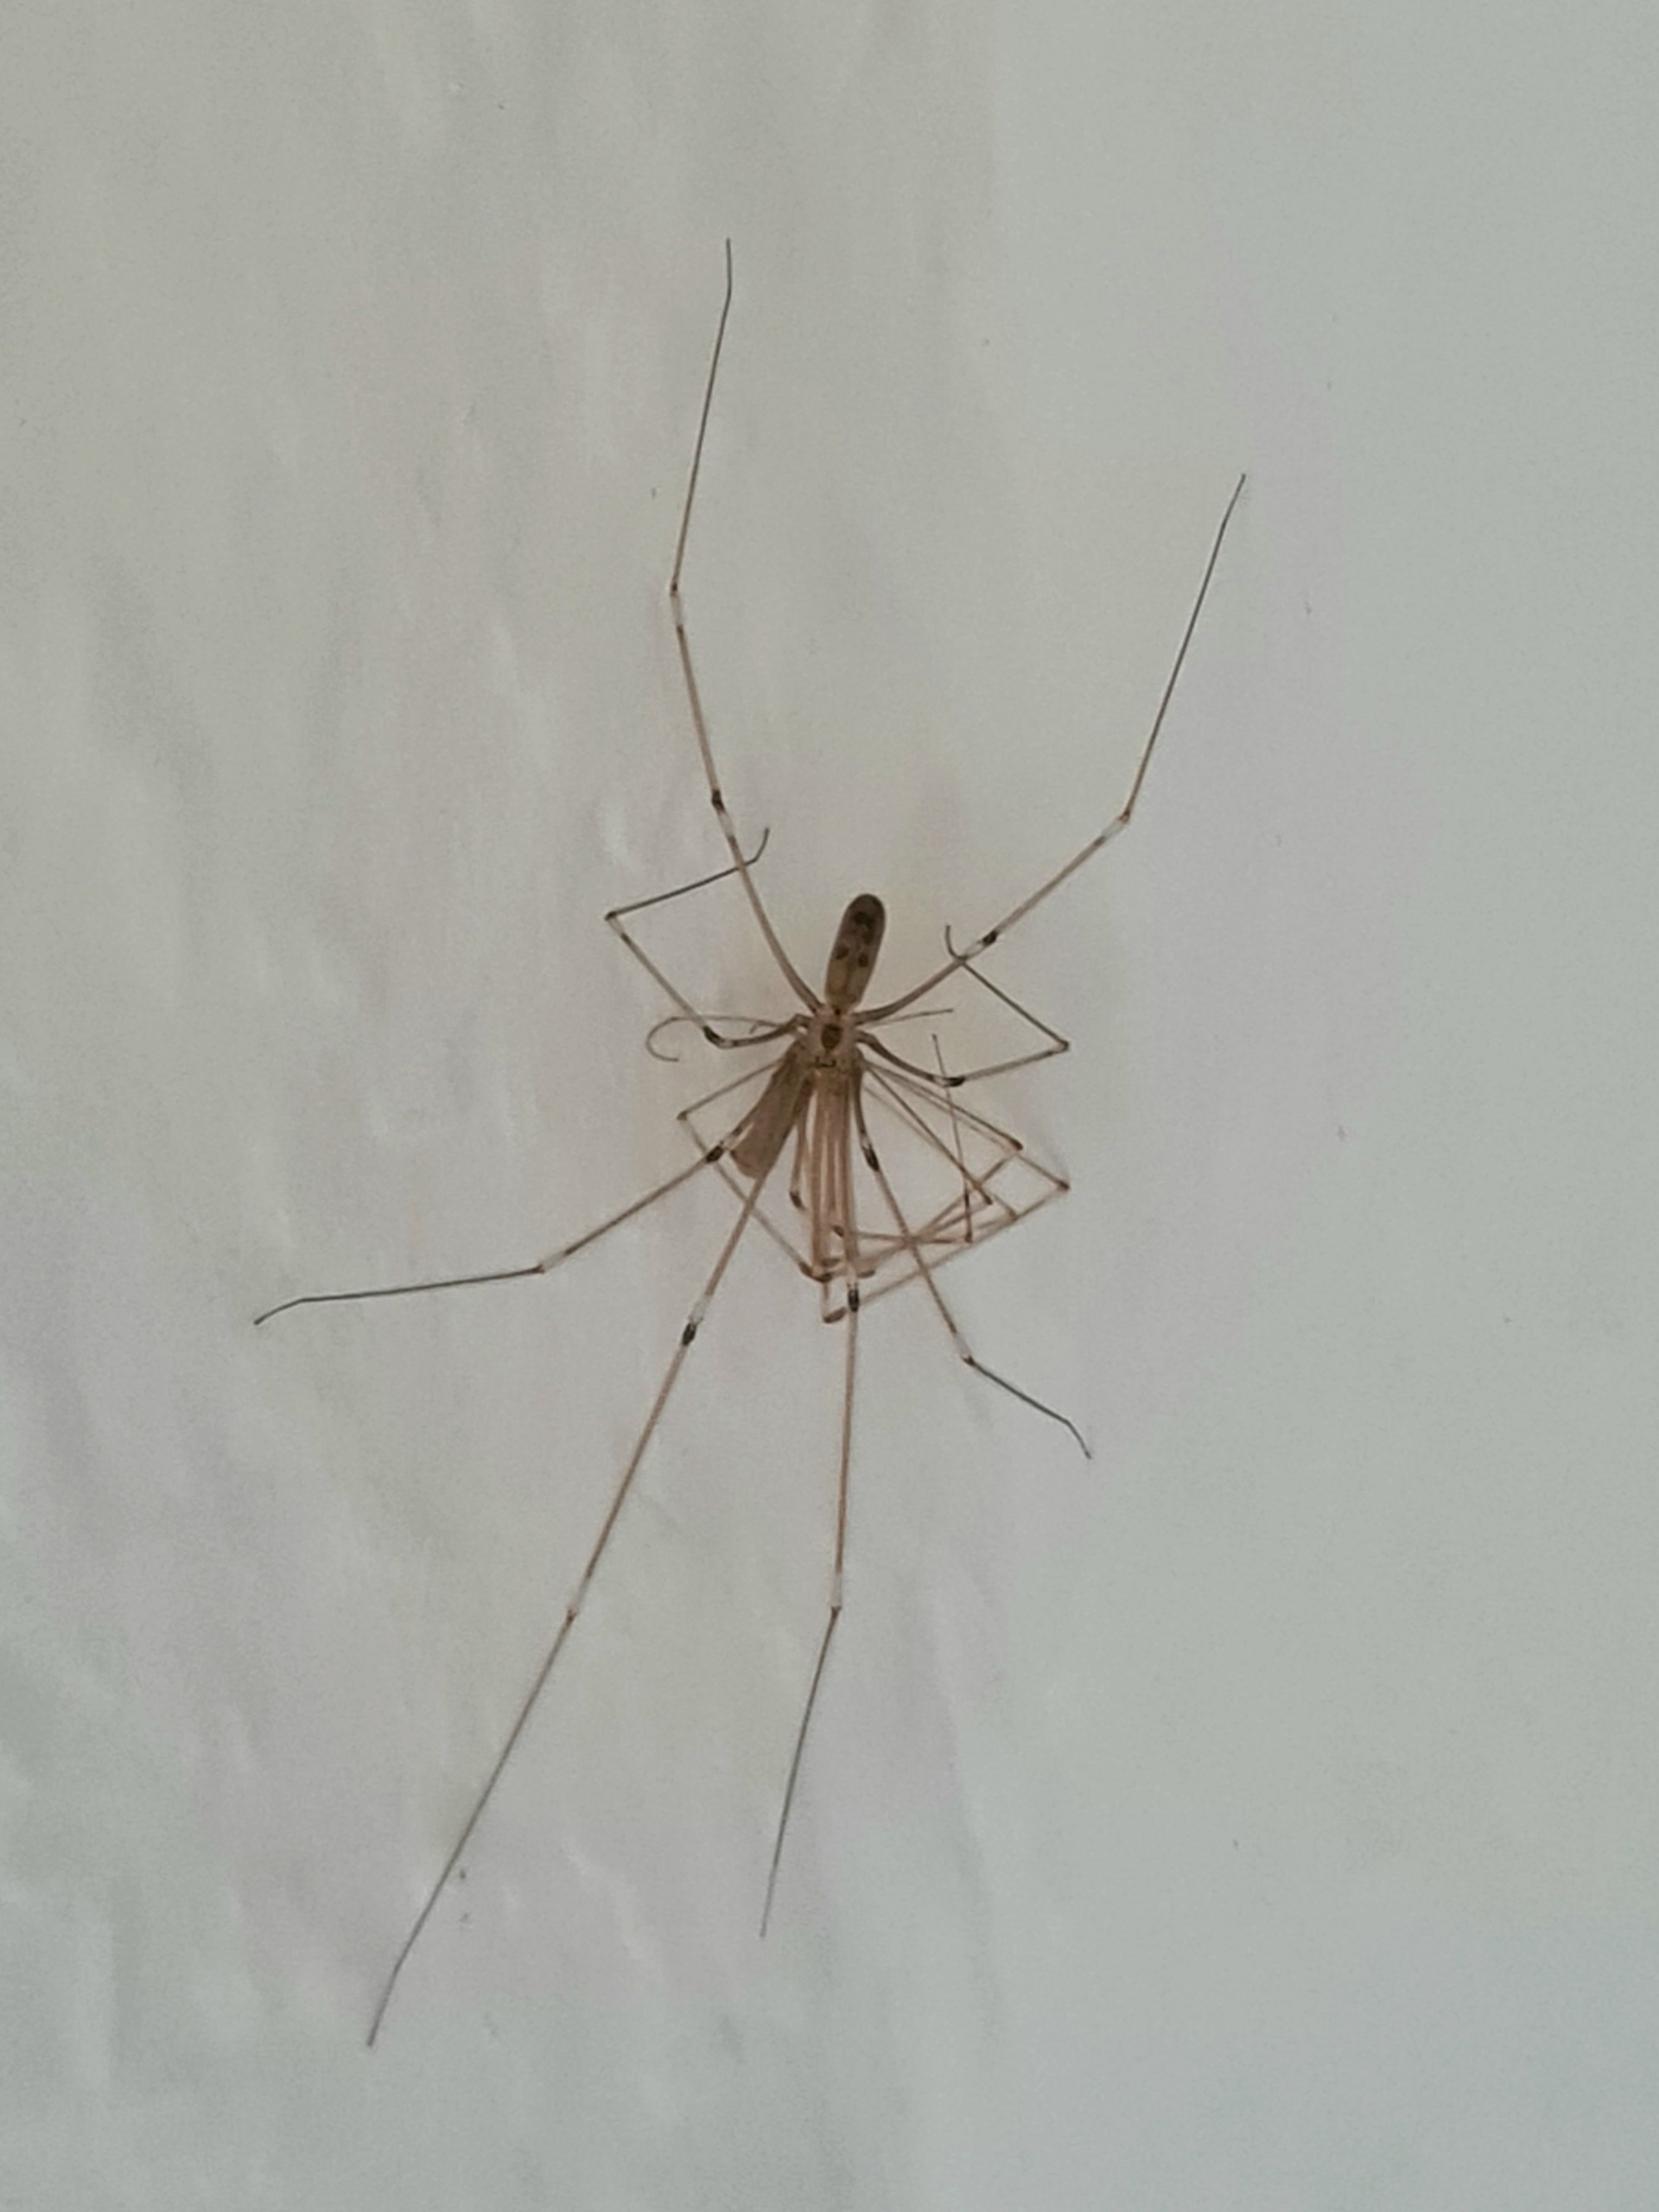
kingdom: Animalia
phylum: Arthropoda
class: Arachnida
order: Araneae
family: Pholcidae
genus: Pholcus
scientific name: Pholcus phalangioides
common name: Mejeredderkop
